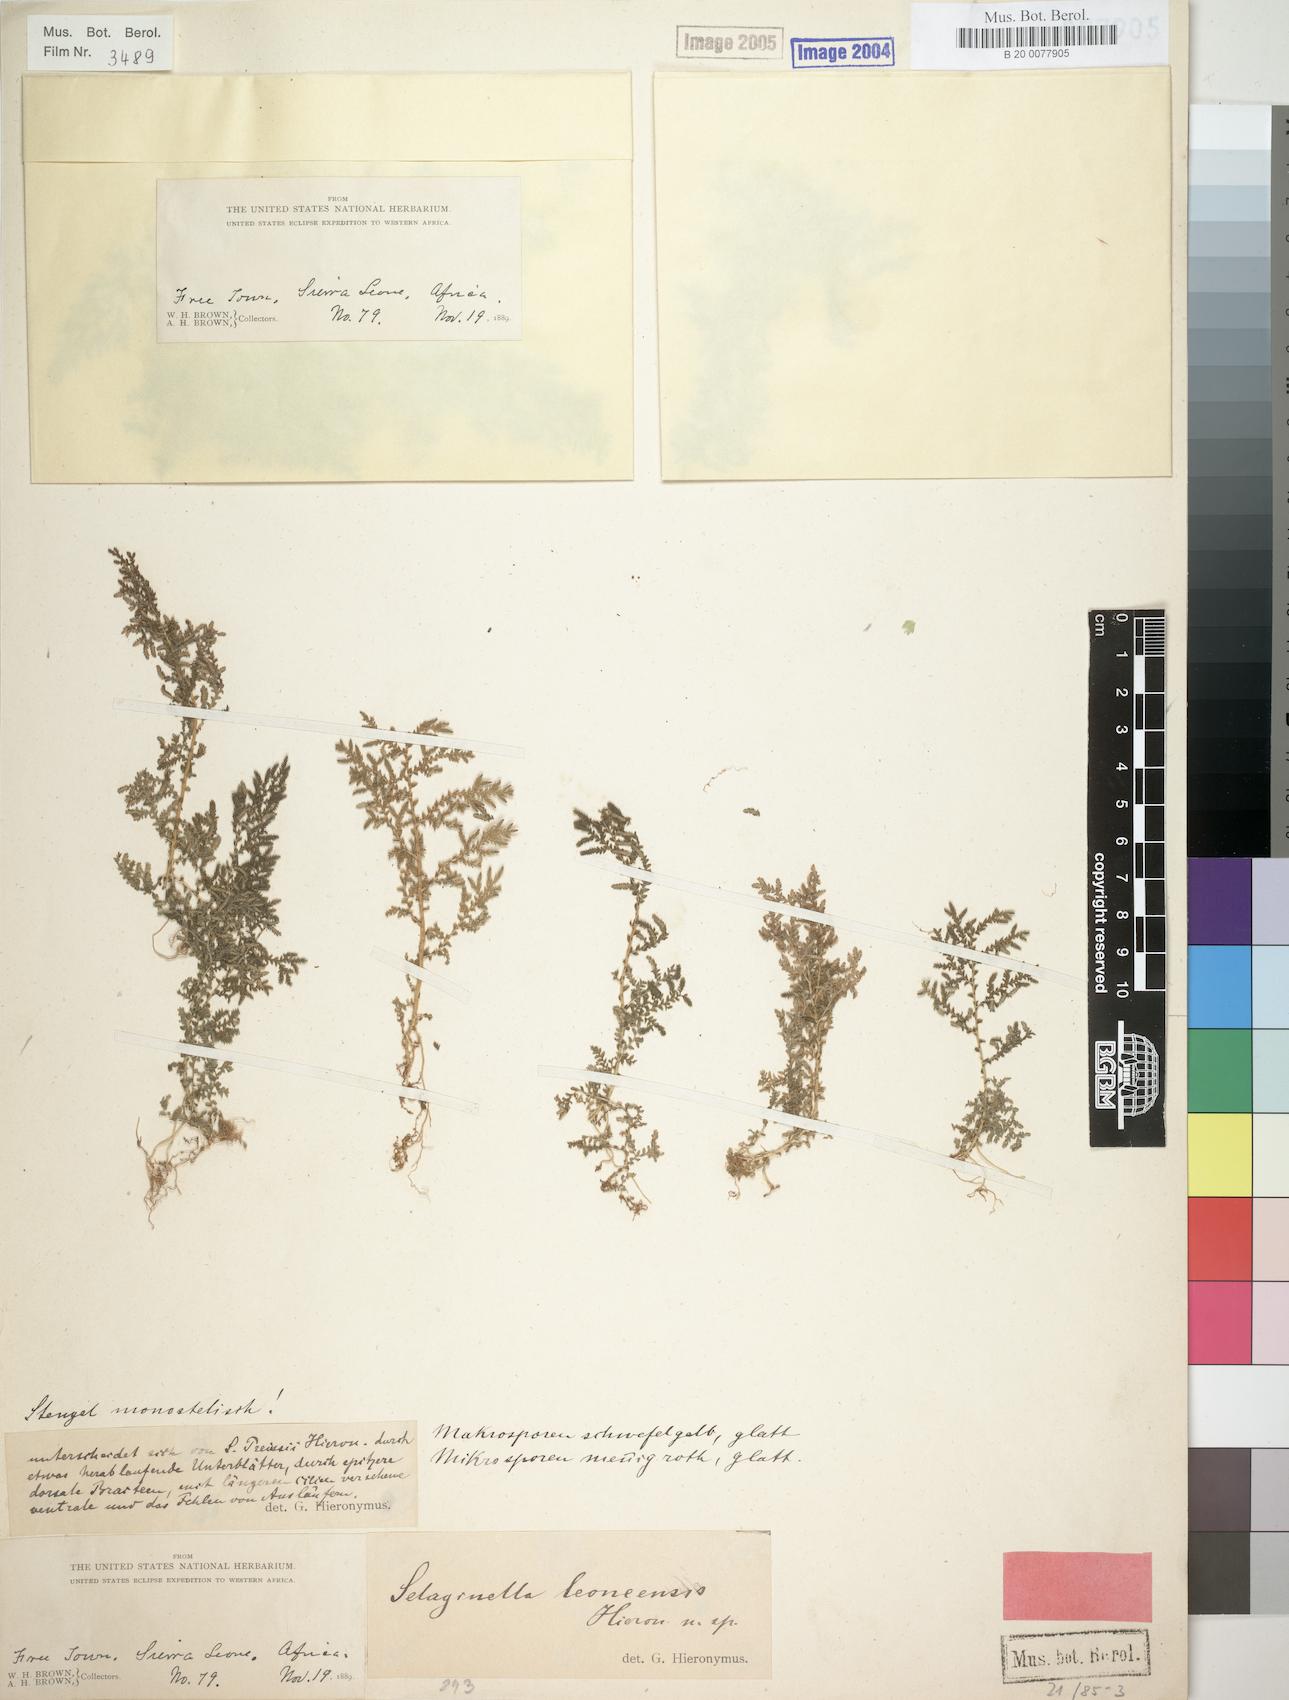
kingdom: Plantae
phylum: Tracheophyta
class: Lycopodiopsida
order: Selaginellales
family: Selaginellaceae
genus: Selaginella
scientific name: Selaginella leoneensis
